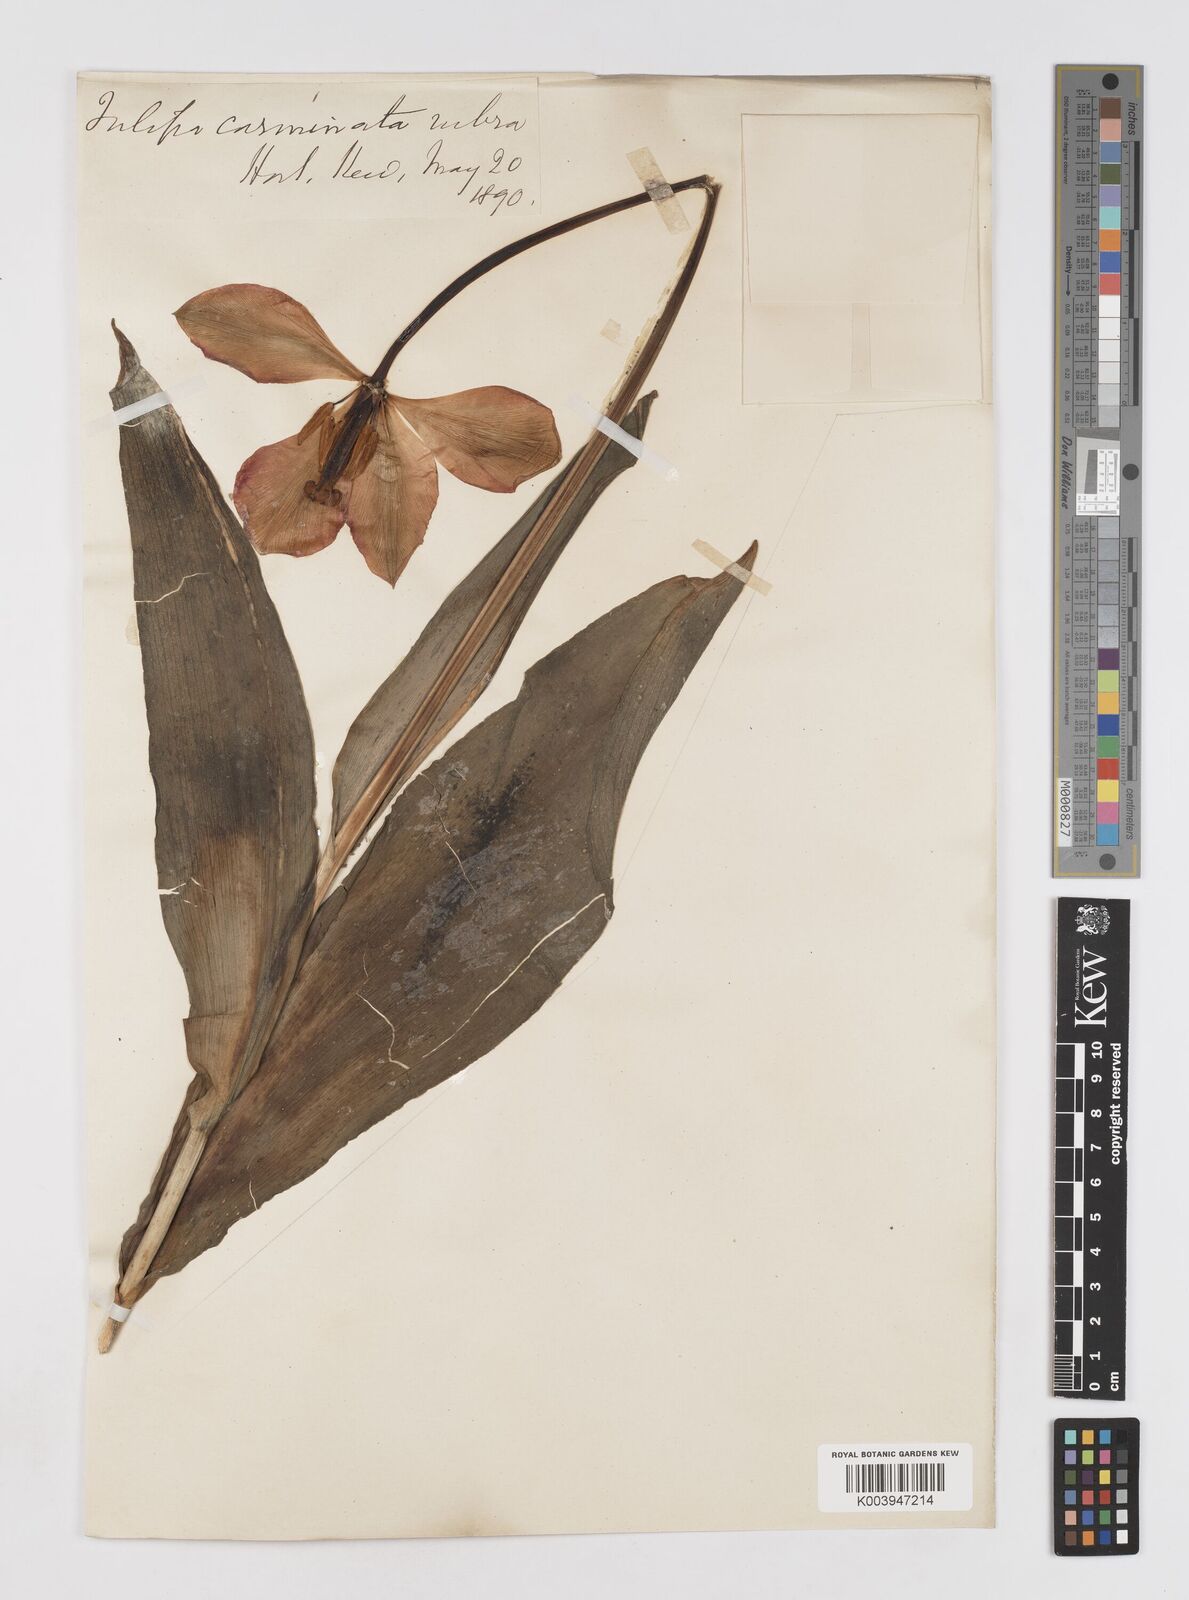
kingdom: Plantae
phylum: Tracheophyta
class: Liliopsida
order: Liliales
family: Liliaceae
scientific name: Liliaceae
